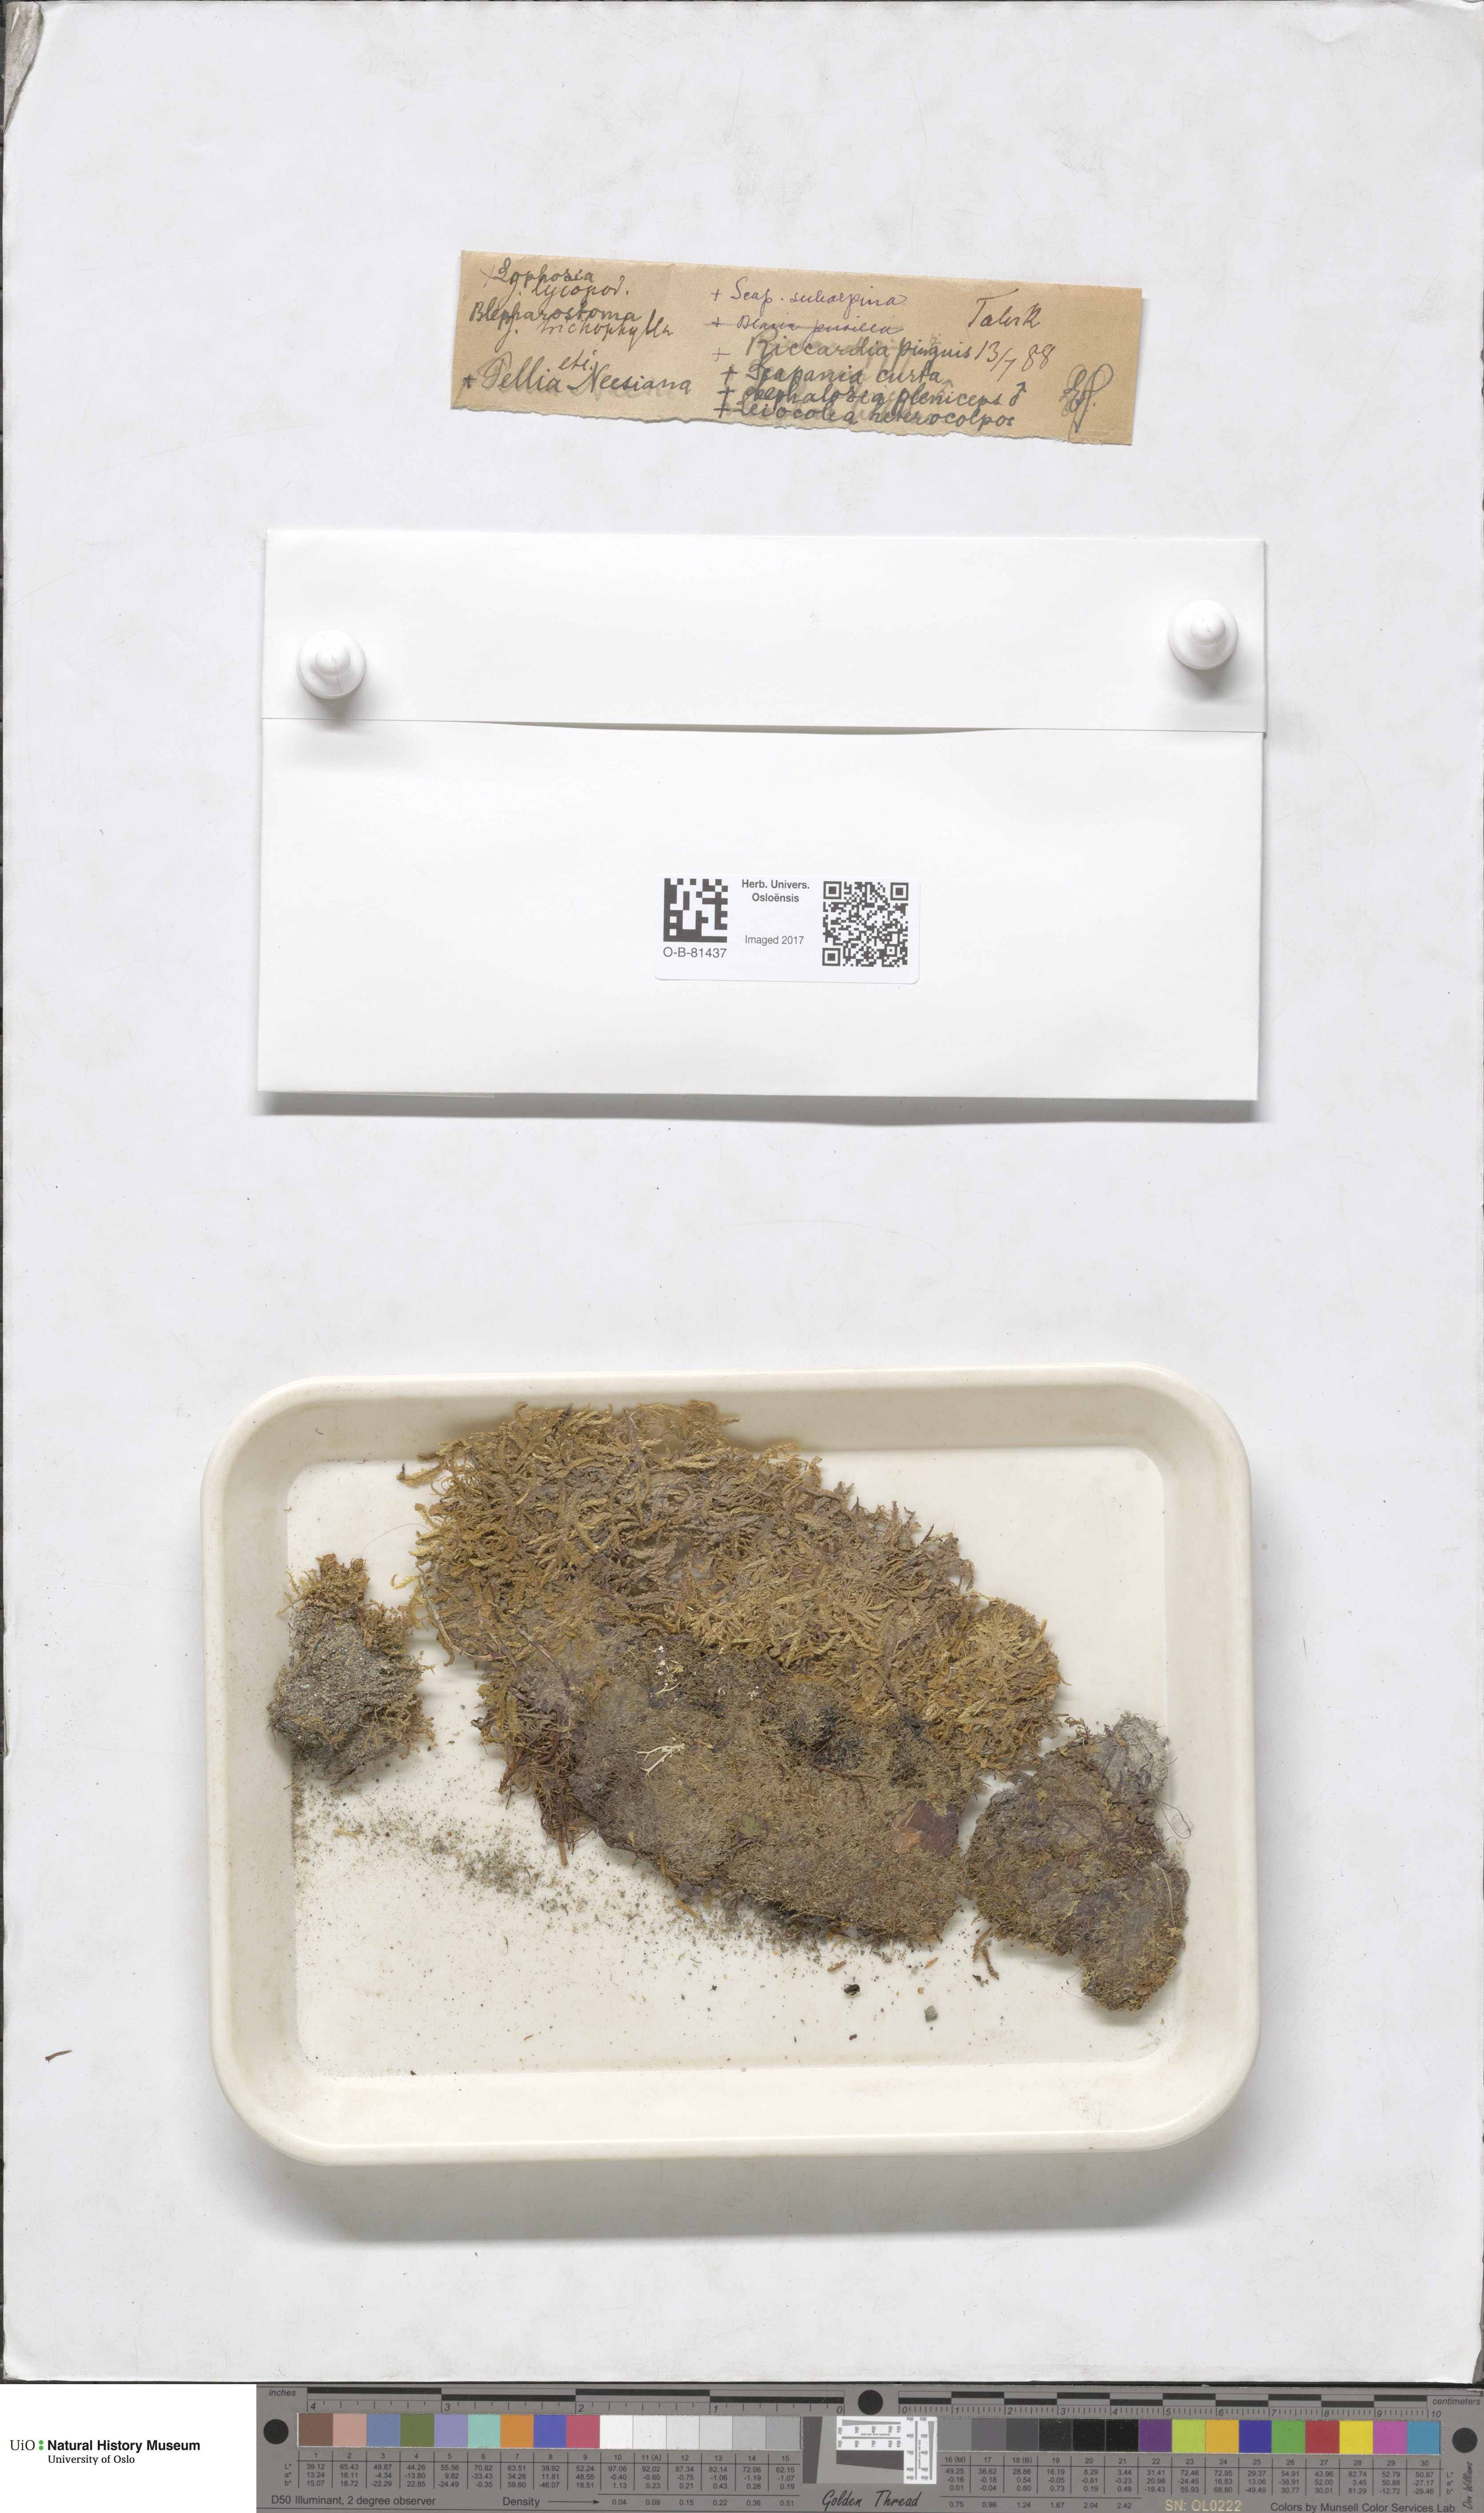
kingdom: Plantae
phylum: Marchantiophyta
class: Jungermanniopsida
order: Pelliales
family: Pelliaceae
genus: Pellia
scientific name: Pellia neesiana
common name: Nees  pellia
